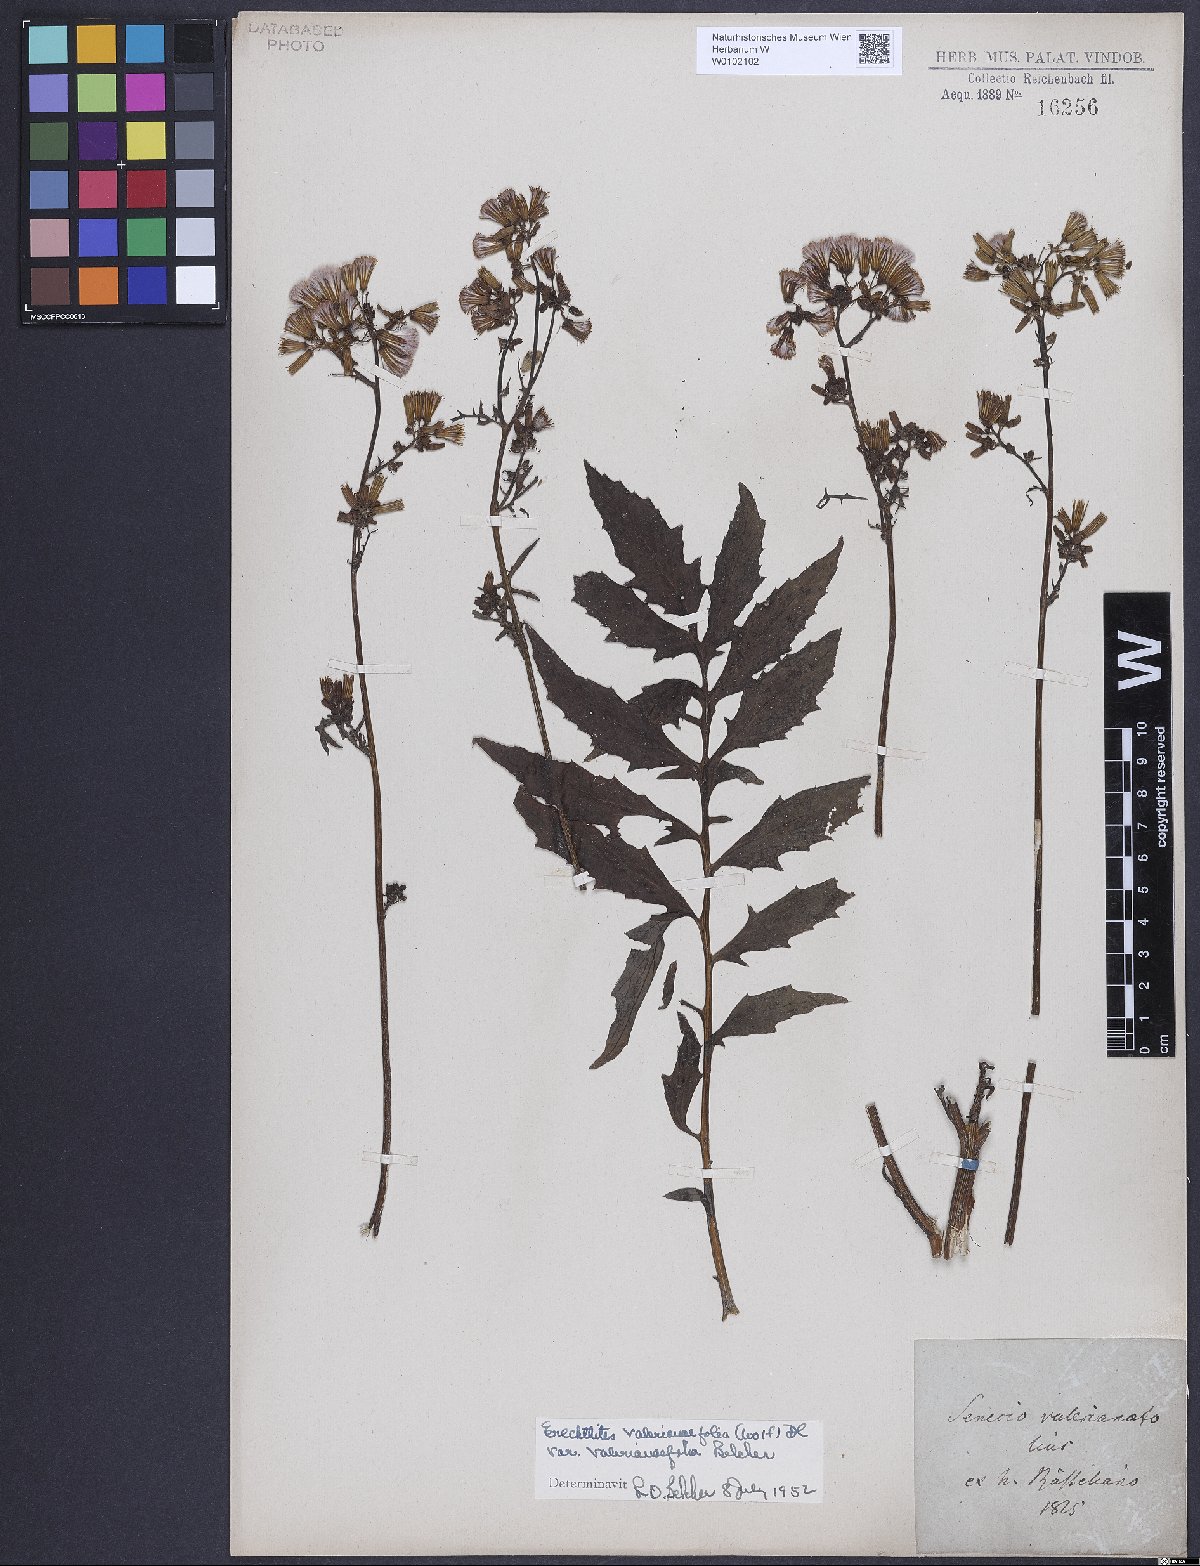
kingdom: Plantae
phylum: Tracheophyta
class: Magnoliopsida
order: Asterales
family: Asteraceae
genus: Erechtites
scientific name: Erechtites valerianifolius
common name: Tropical burnweed
